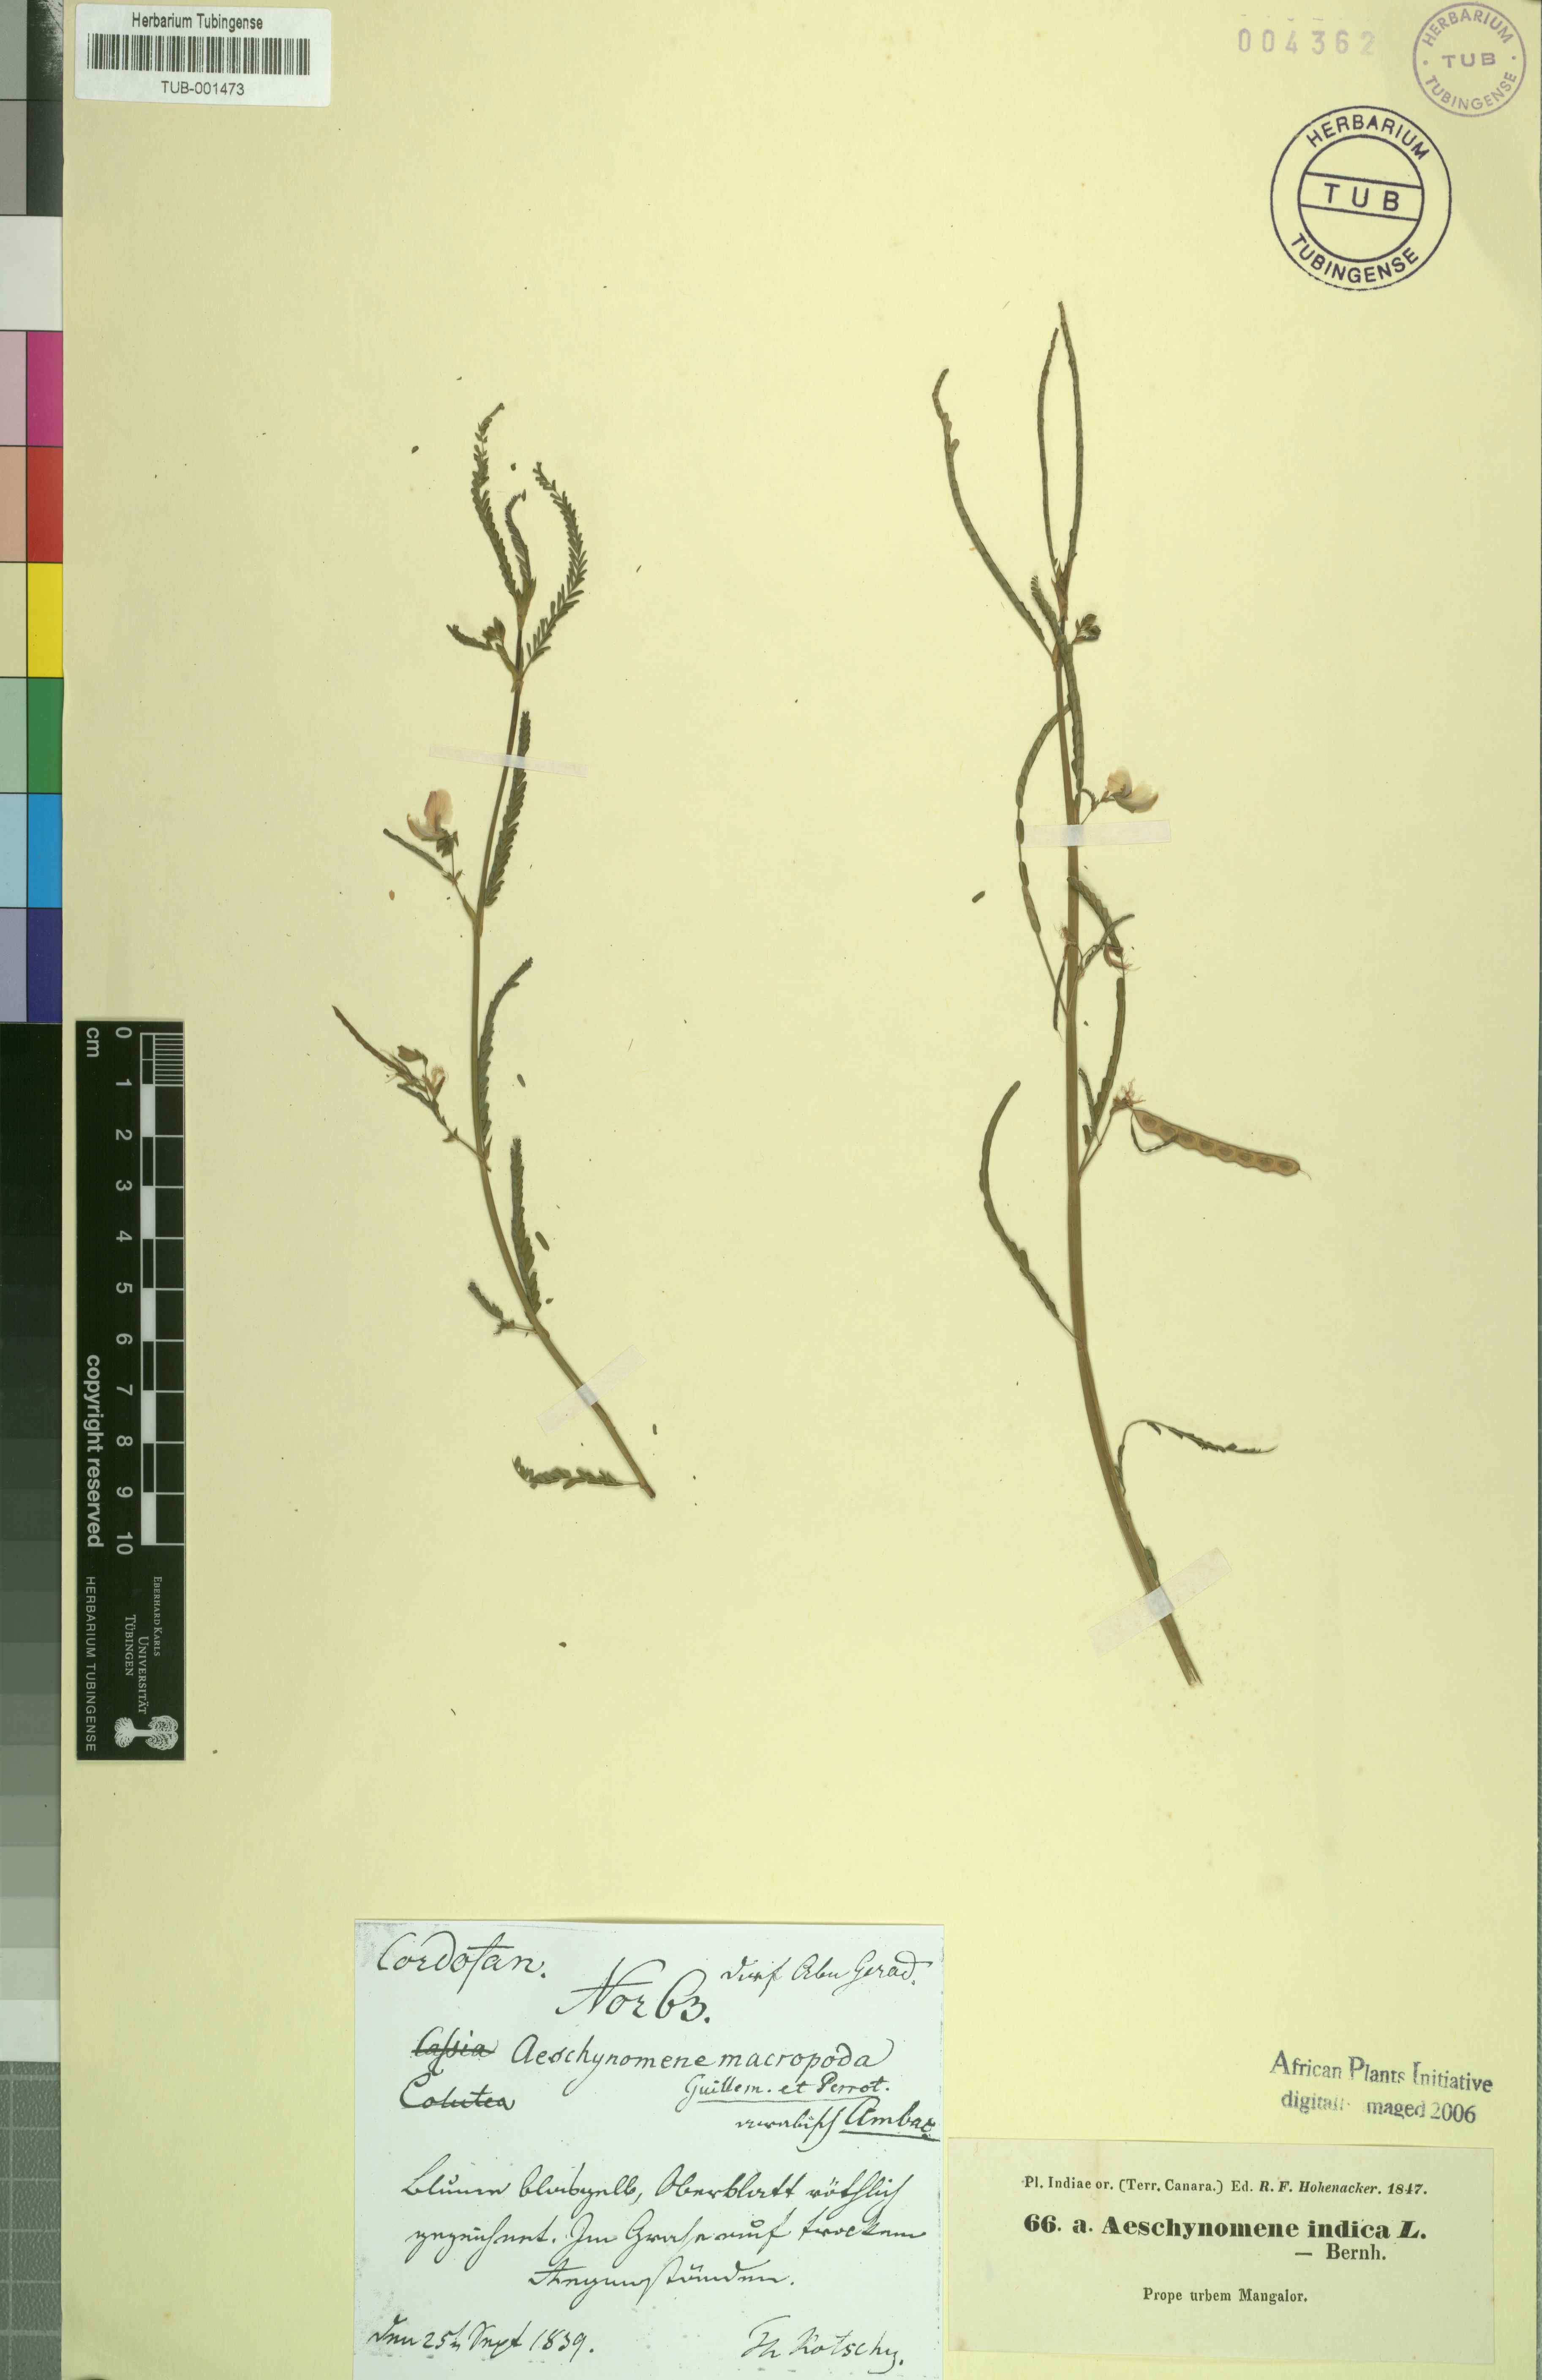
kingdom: Plantae
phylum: Tracheophyta
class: Magnoliopsida
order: Fabales
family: Fabaceae
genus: Aeschynomene
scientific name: Aeschynomene indica
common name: Indian jointvetch
